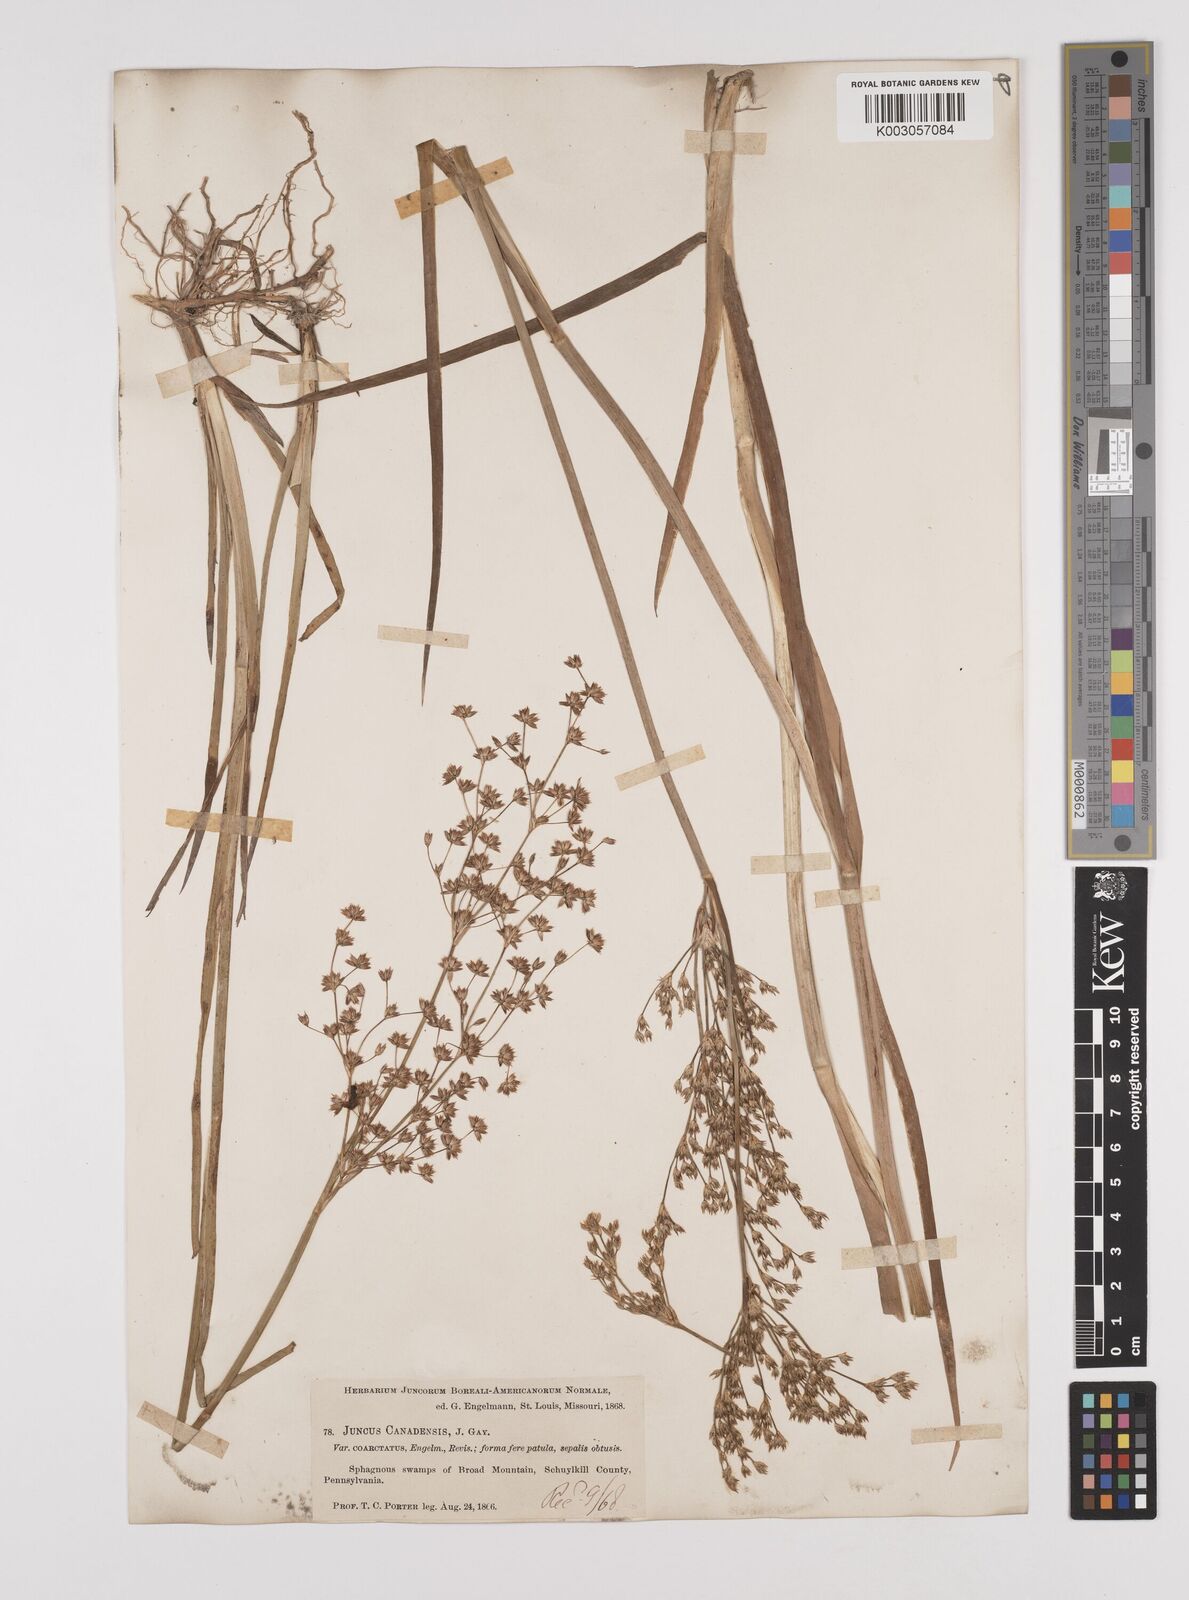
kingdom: Plantae
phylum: Tracheophyta
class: Liliopsida
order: Poales
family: Juncaceae
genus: Juncus
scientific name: Juncus canadensis
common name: Canada rush
